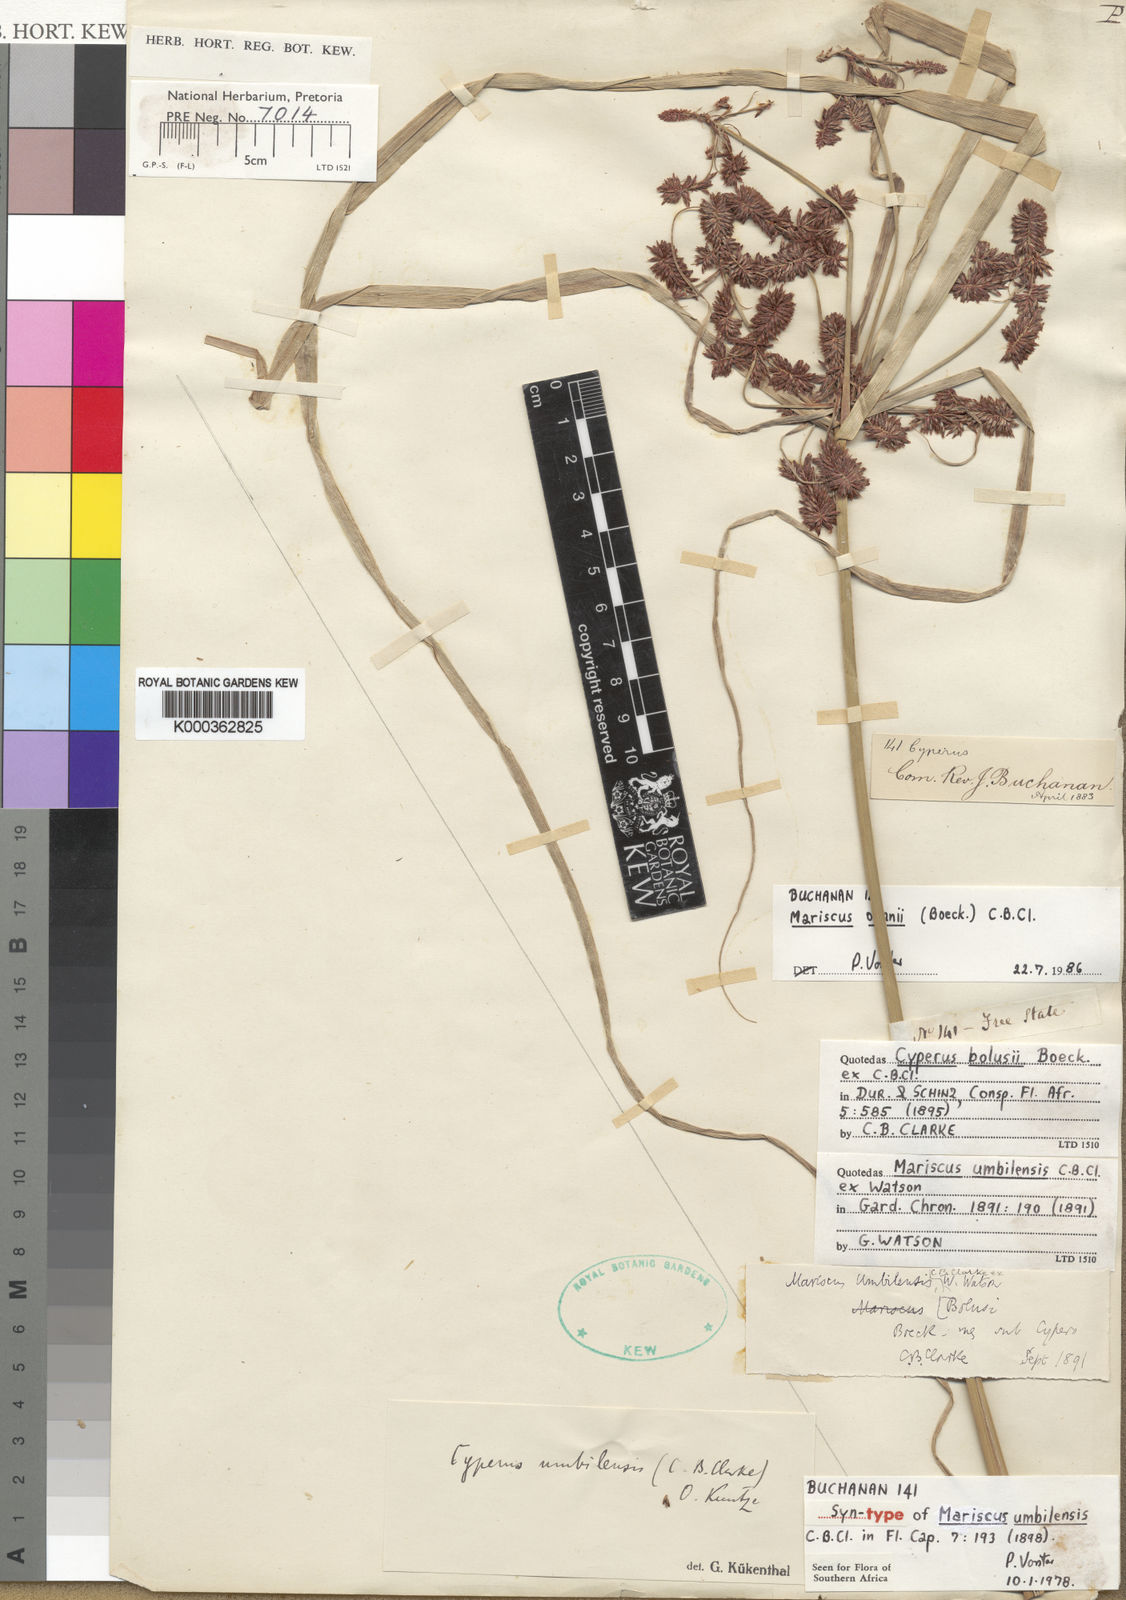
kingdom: Plantae
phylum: Tracheophyta
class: Liliopsida
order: Poales
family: Cyperaceae
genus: Cyperus
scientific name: Cyperus owanii
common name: Owan's flatsedge
